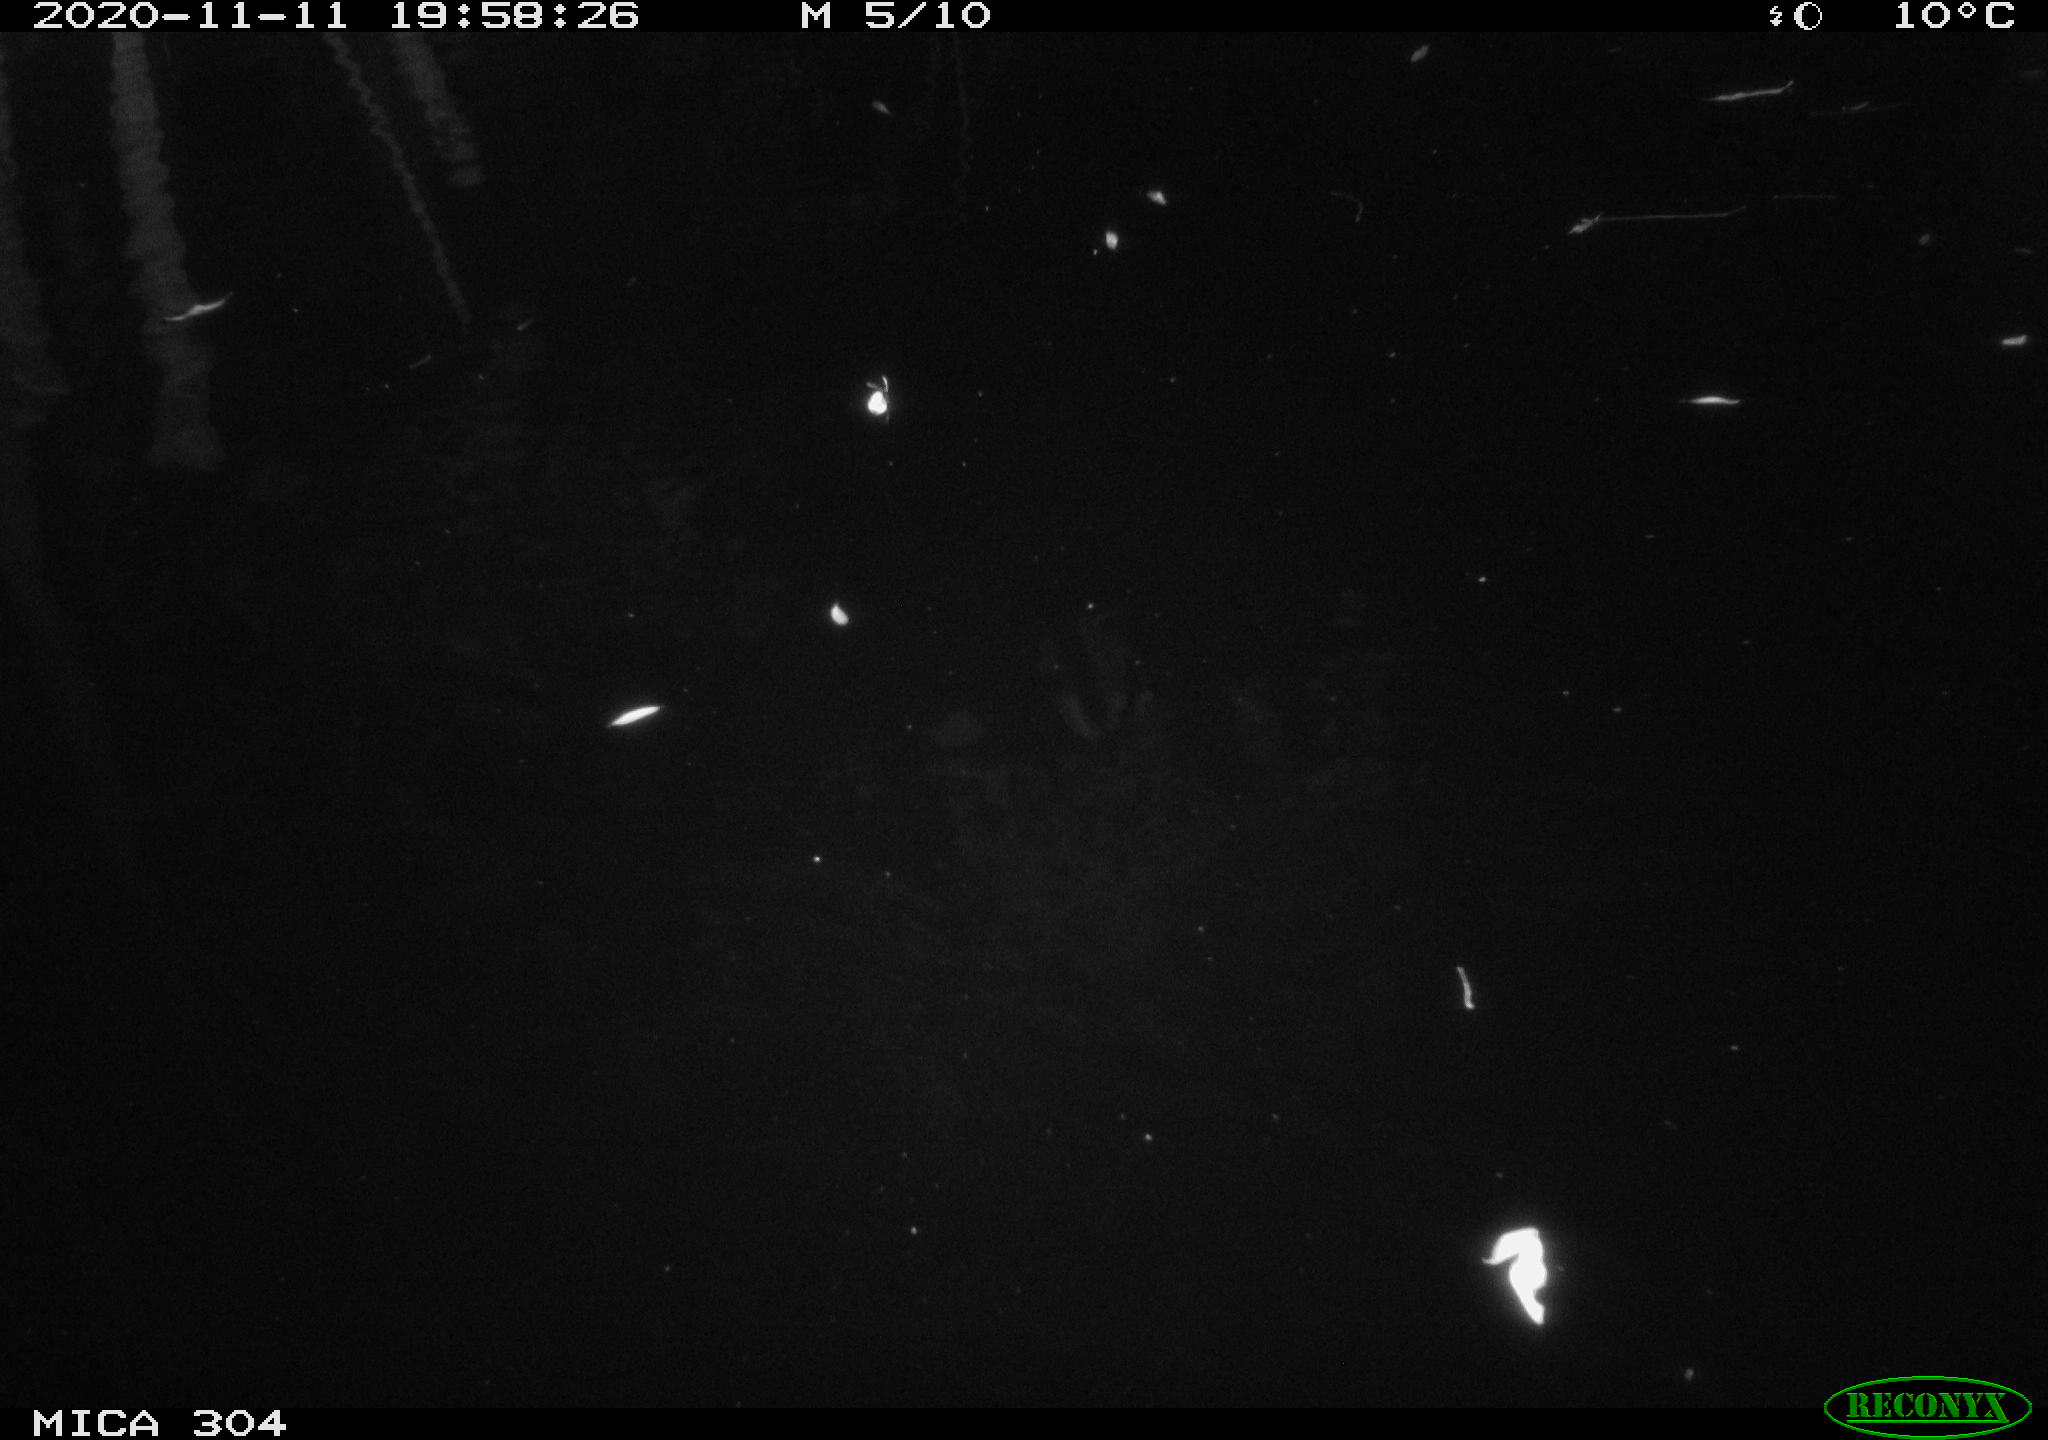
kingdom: Animalia
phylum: Chordata
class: Mammalia
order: Rodentia
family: Muridae
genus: Rattus
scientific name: Rattus norvegicus
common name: Brown rat
